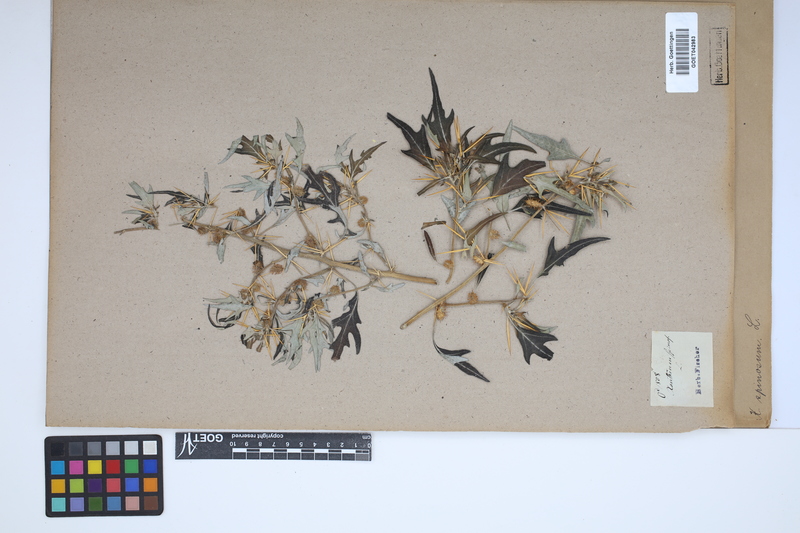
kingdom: Plantae
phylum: Tracheophyta
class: Magnoliopsida
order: Asterales
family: Asteraceae
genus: Xanthium
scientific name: Xanthium spinosum
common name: Spiny cocklebur
